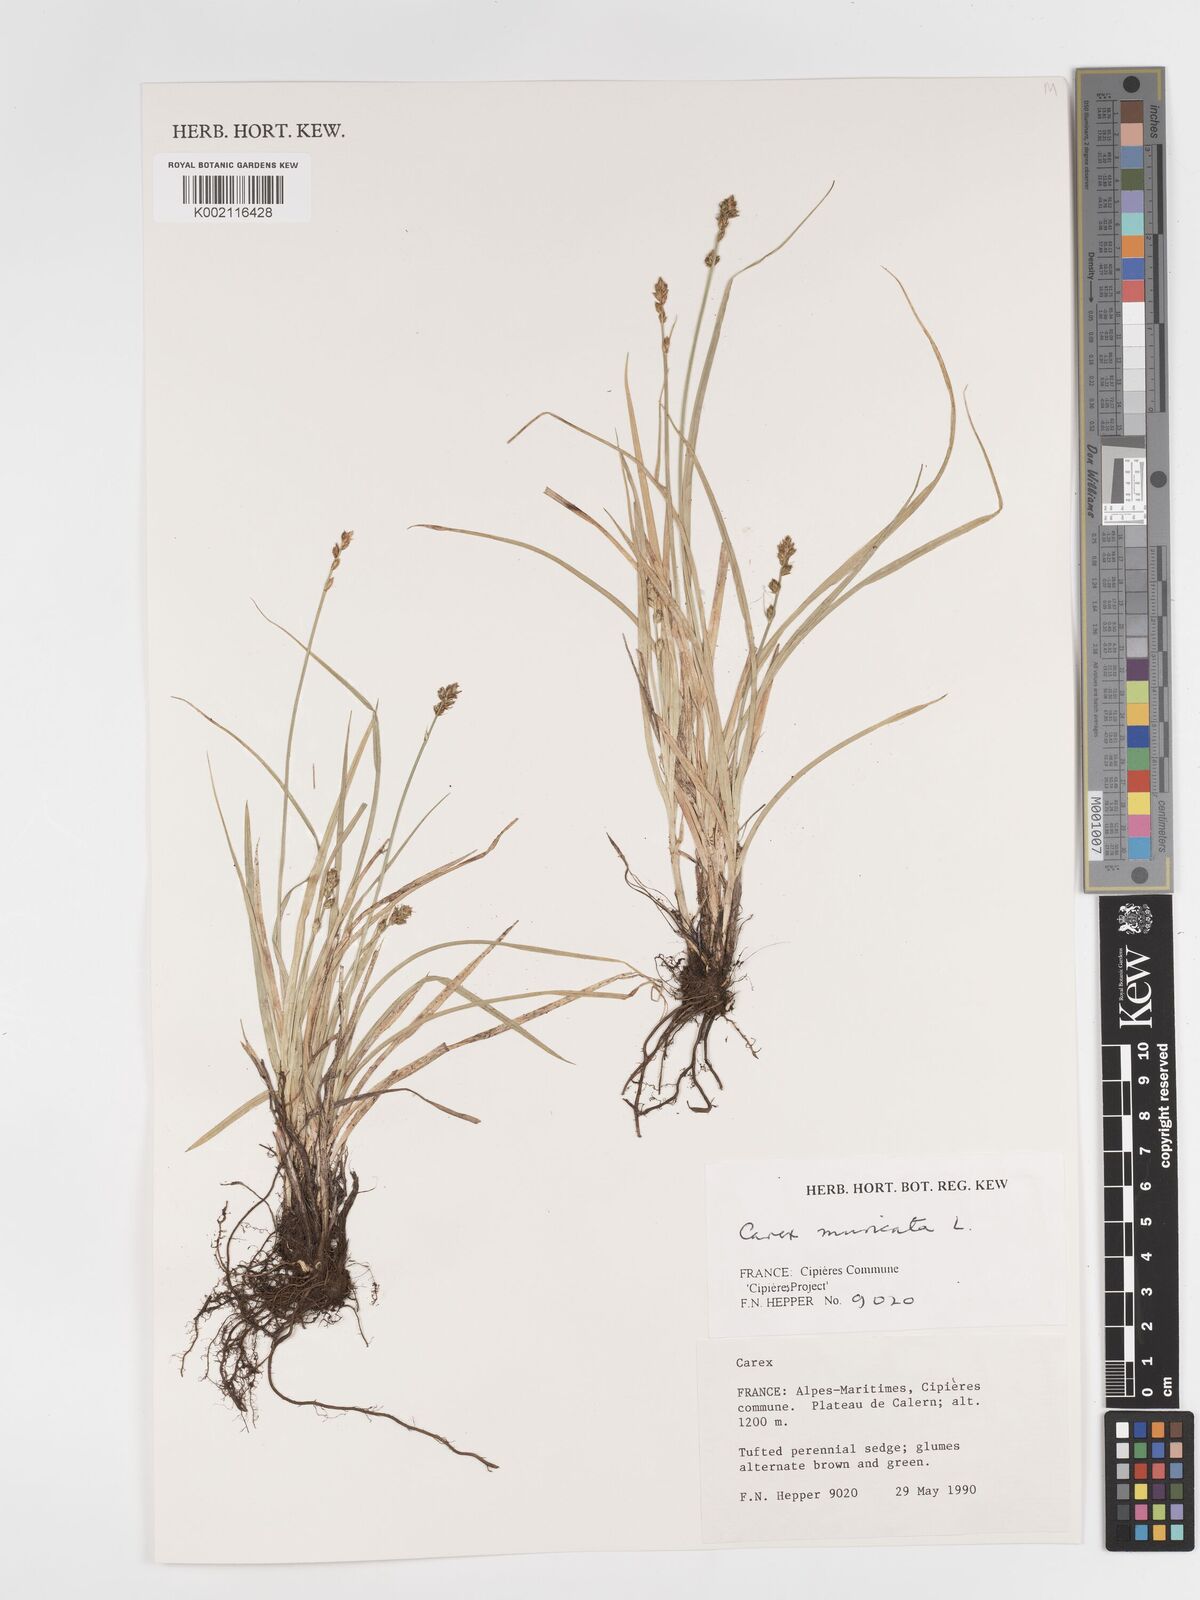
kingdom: Plantae
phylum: Tracheophyta
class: Liliopsida
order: Poales
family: Cyperaceae
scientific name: Cyperaceae
